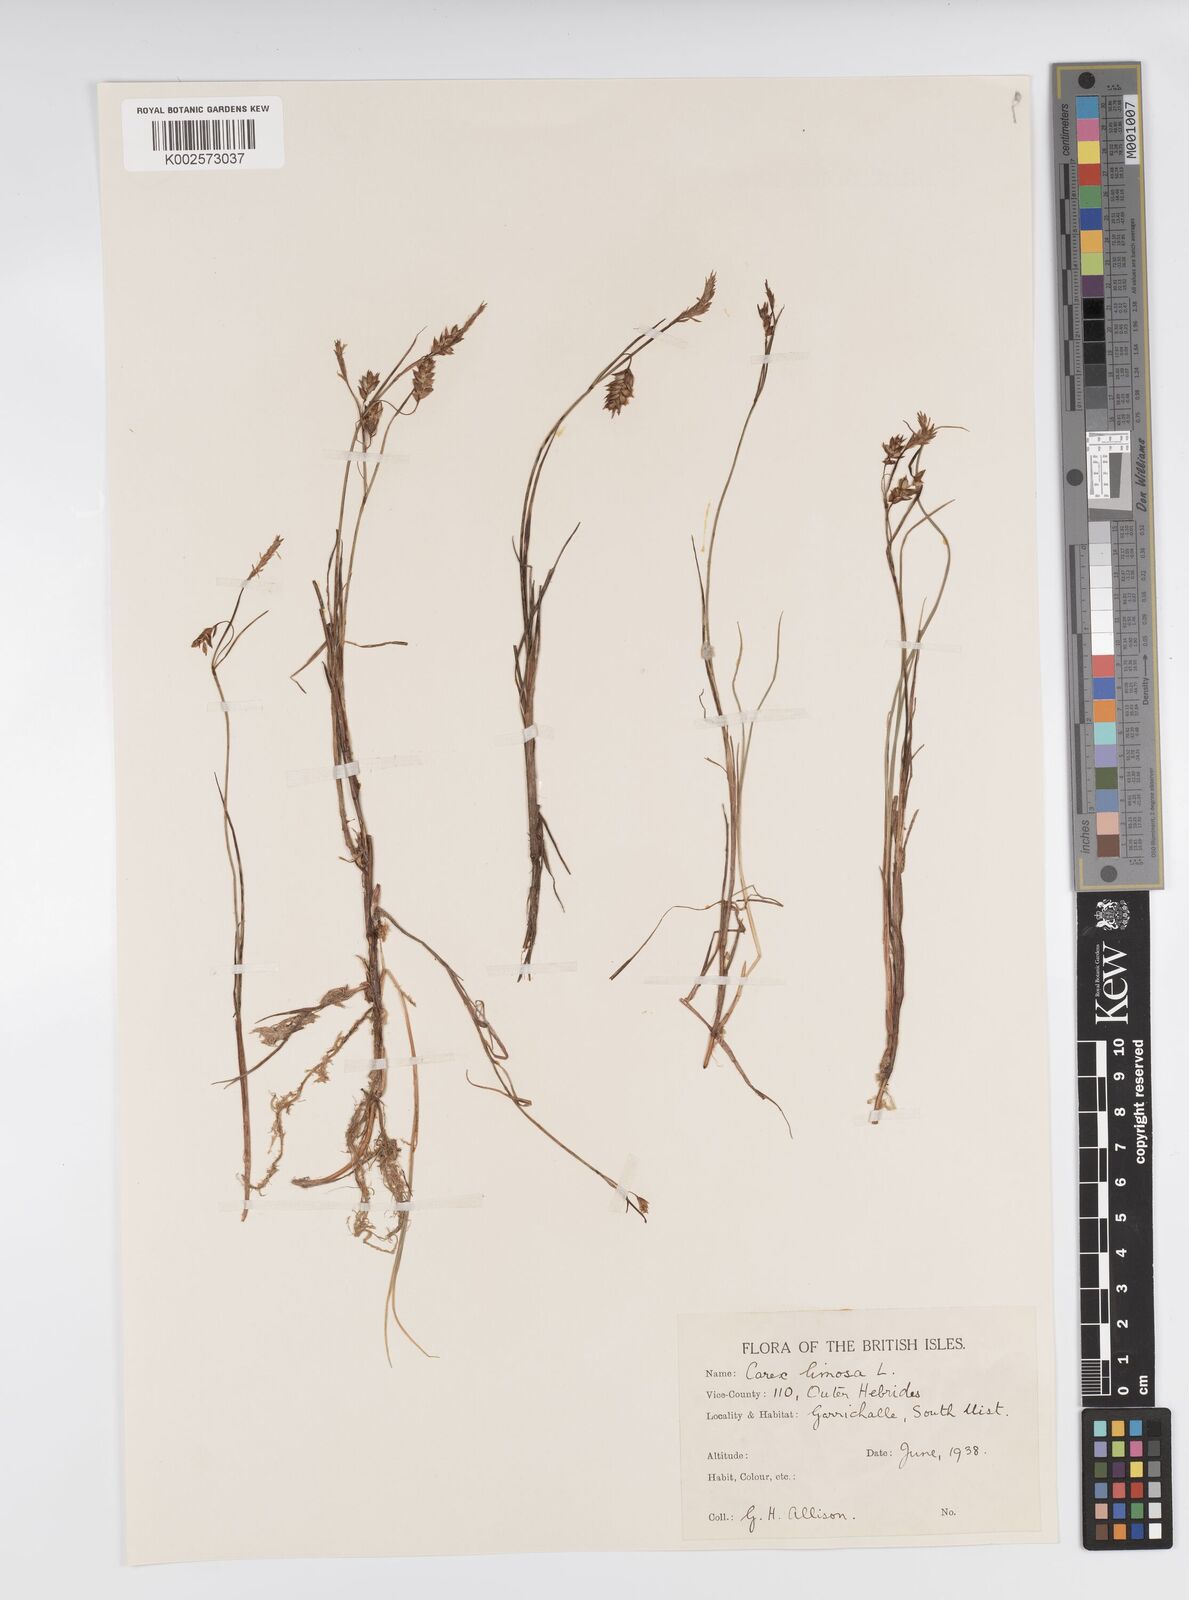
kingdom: Plantae
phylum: Tracheophyta
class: Liliopsida
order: Poales
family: Cyperaceae
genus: Carex
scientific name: Carex limosa
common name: Bog sedge
